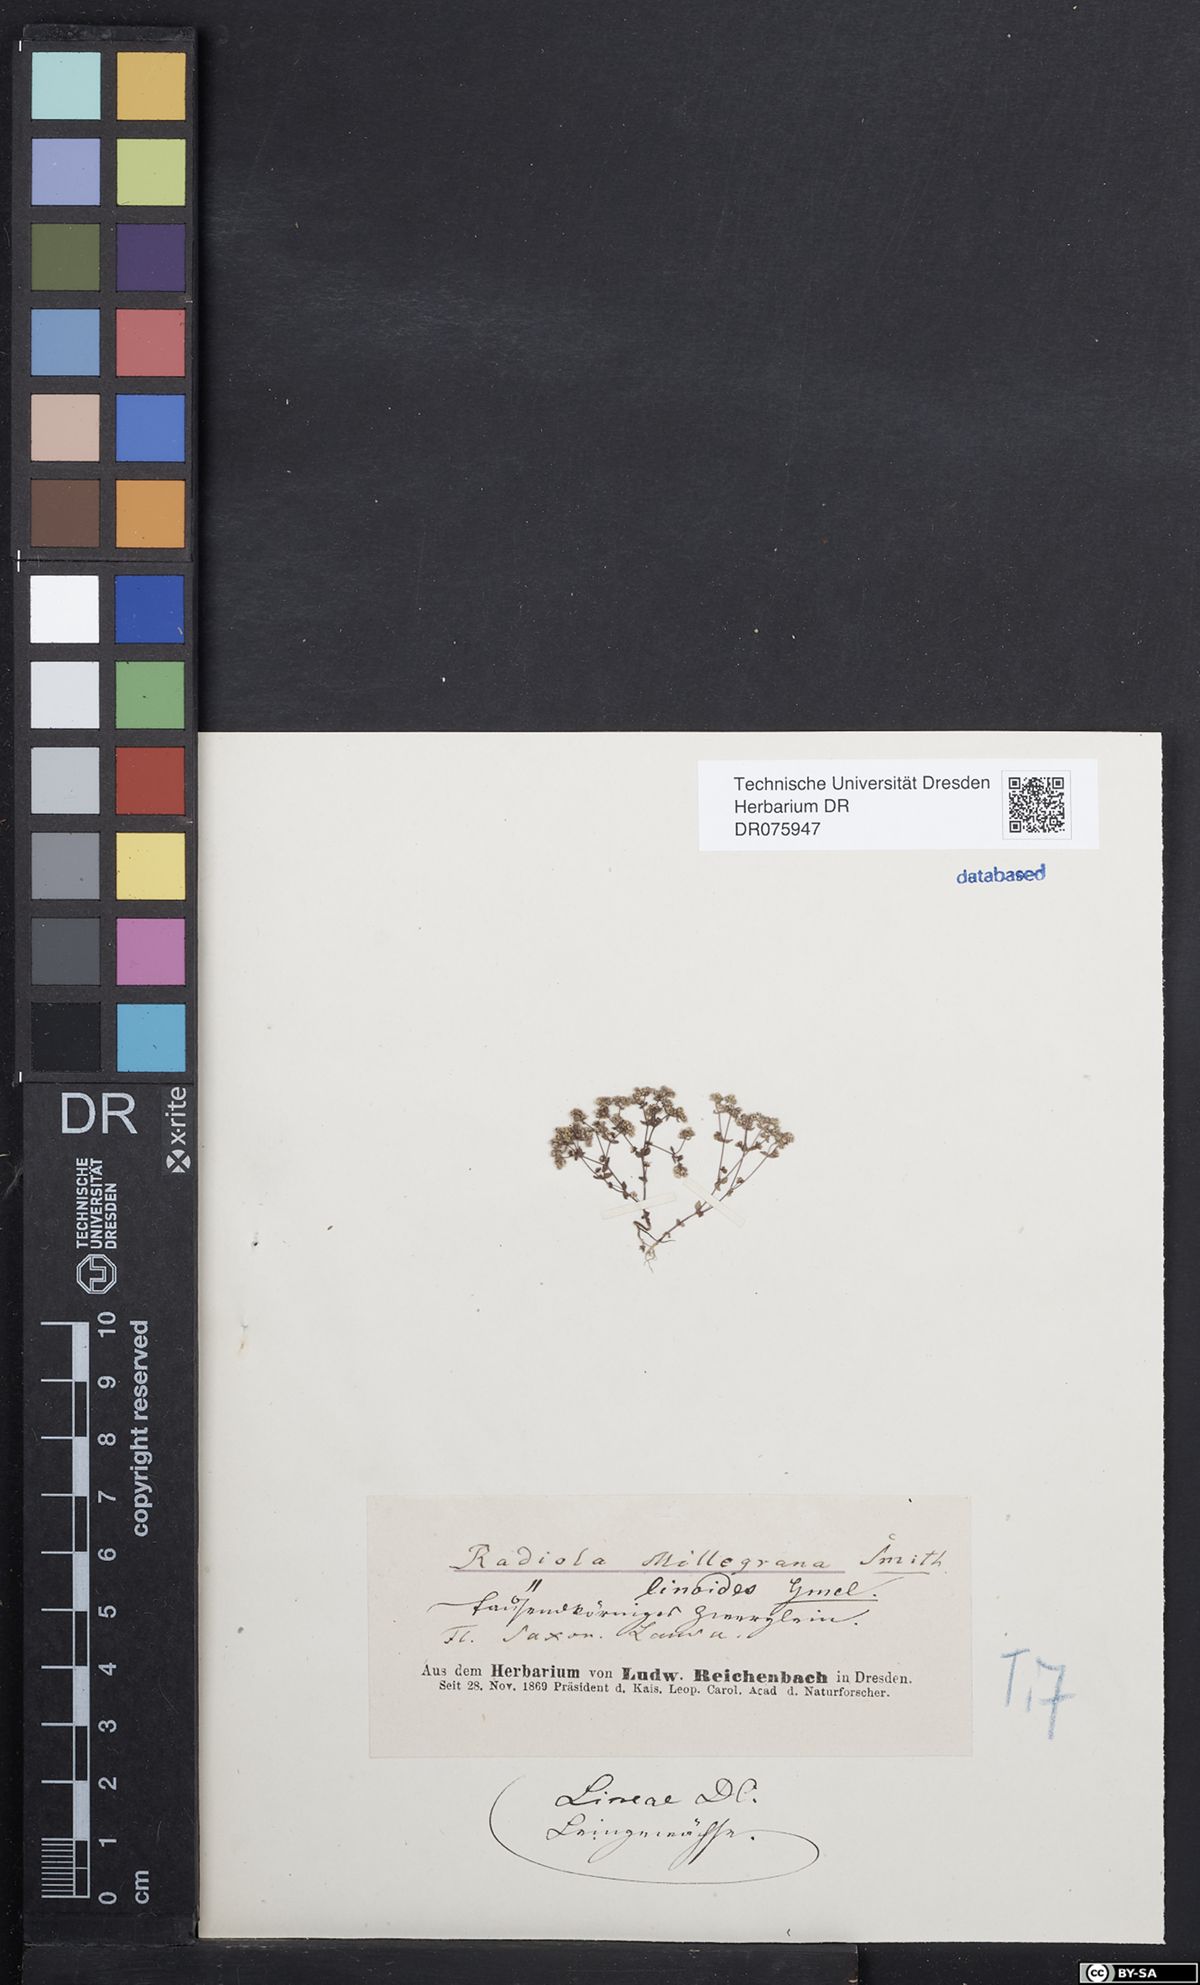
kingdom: Plantae
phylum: Tracheophyta
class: Magnoliopsida
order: Malpighiales
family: Linaceae
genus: Radiola
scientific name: Radiola linoides
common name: Allseed
